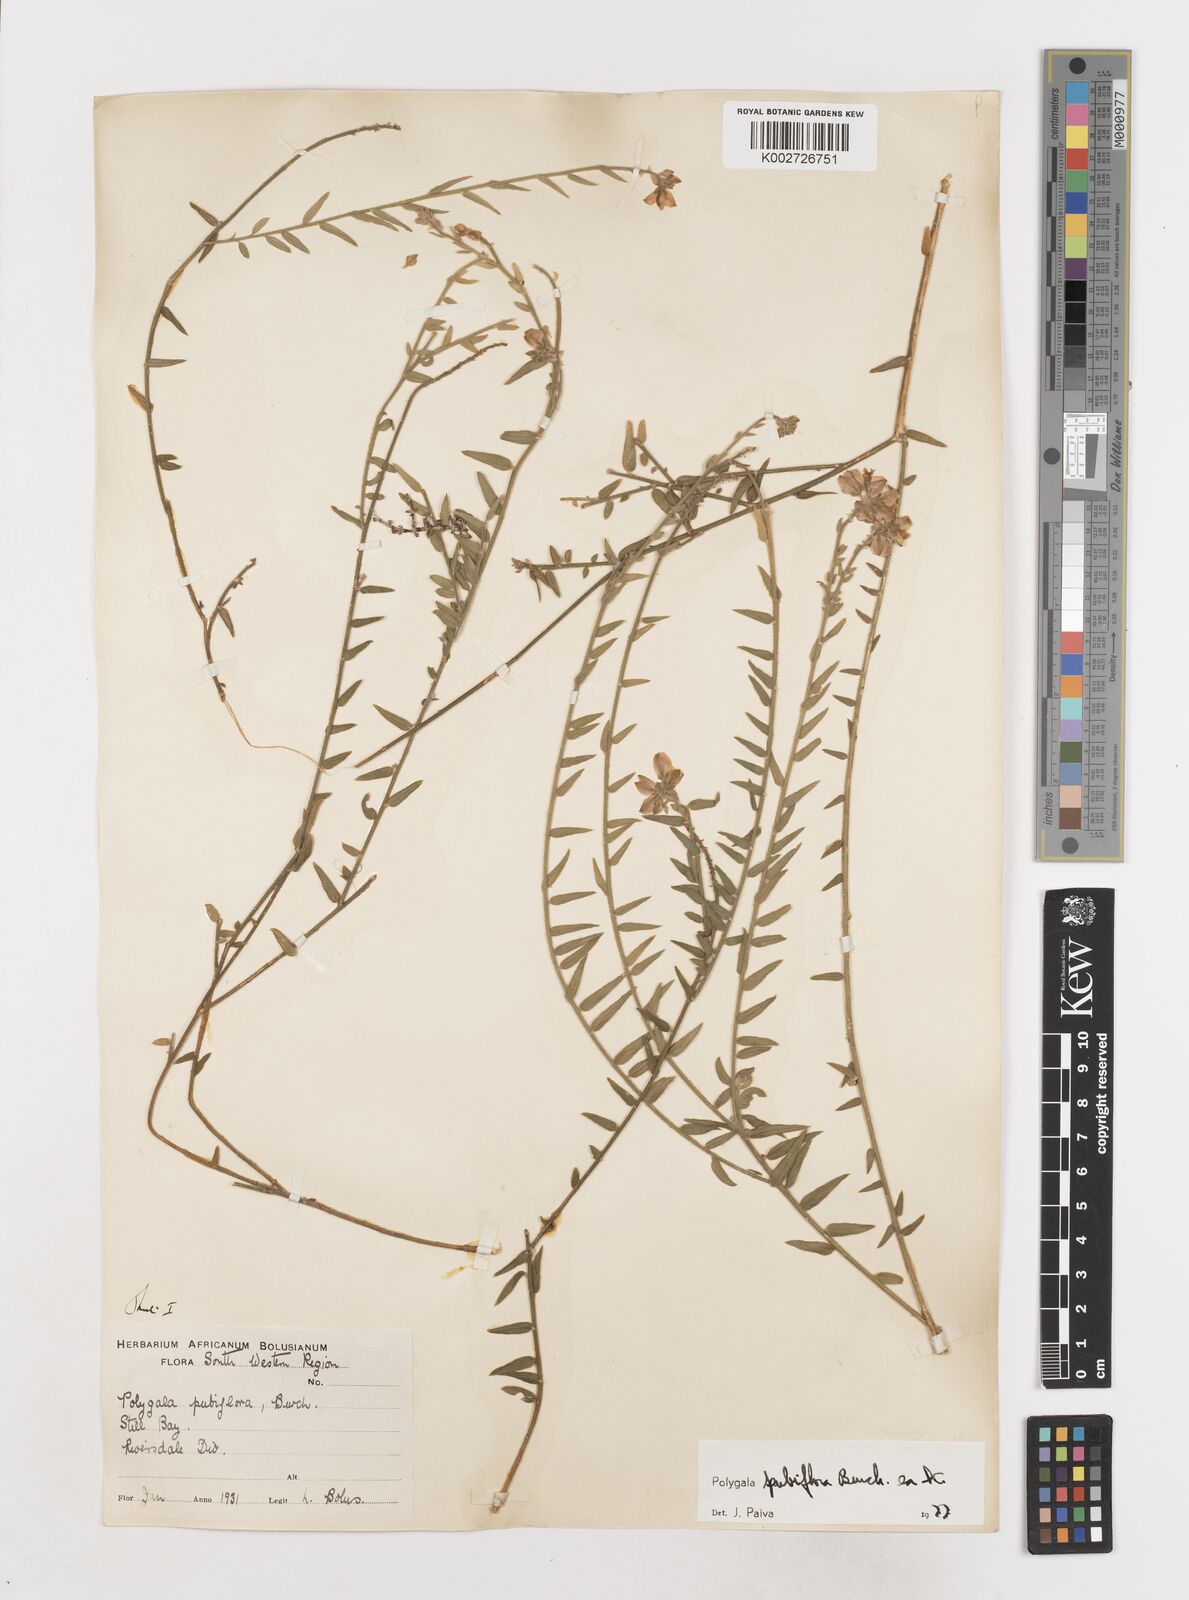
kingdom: Plantae
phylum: Tracheophyta
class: Magnoliopsida
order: Fabales
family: Polygalaceae
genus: Polygala
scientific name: Polygala pubiflora
